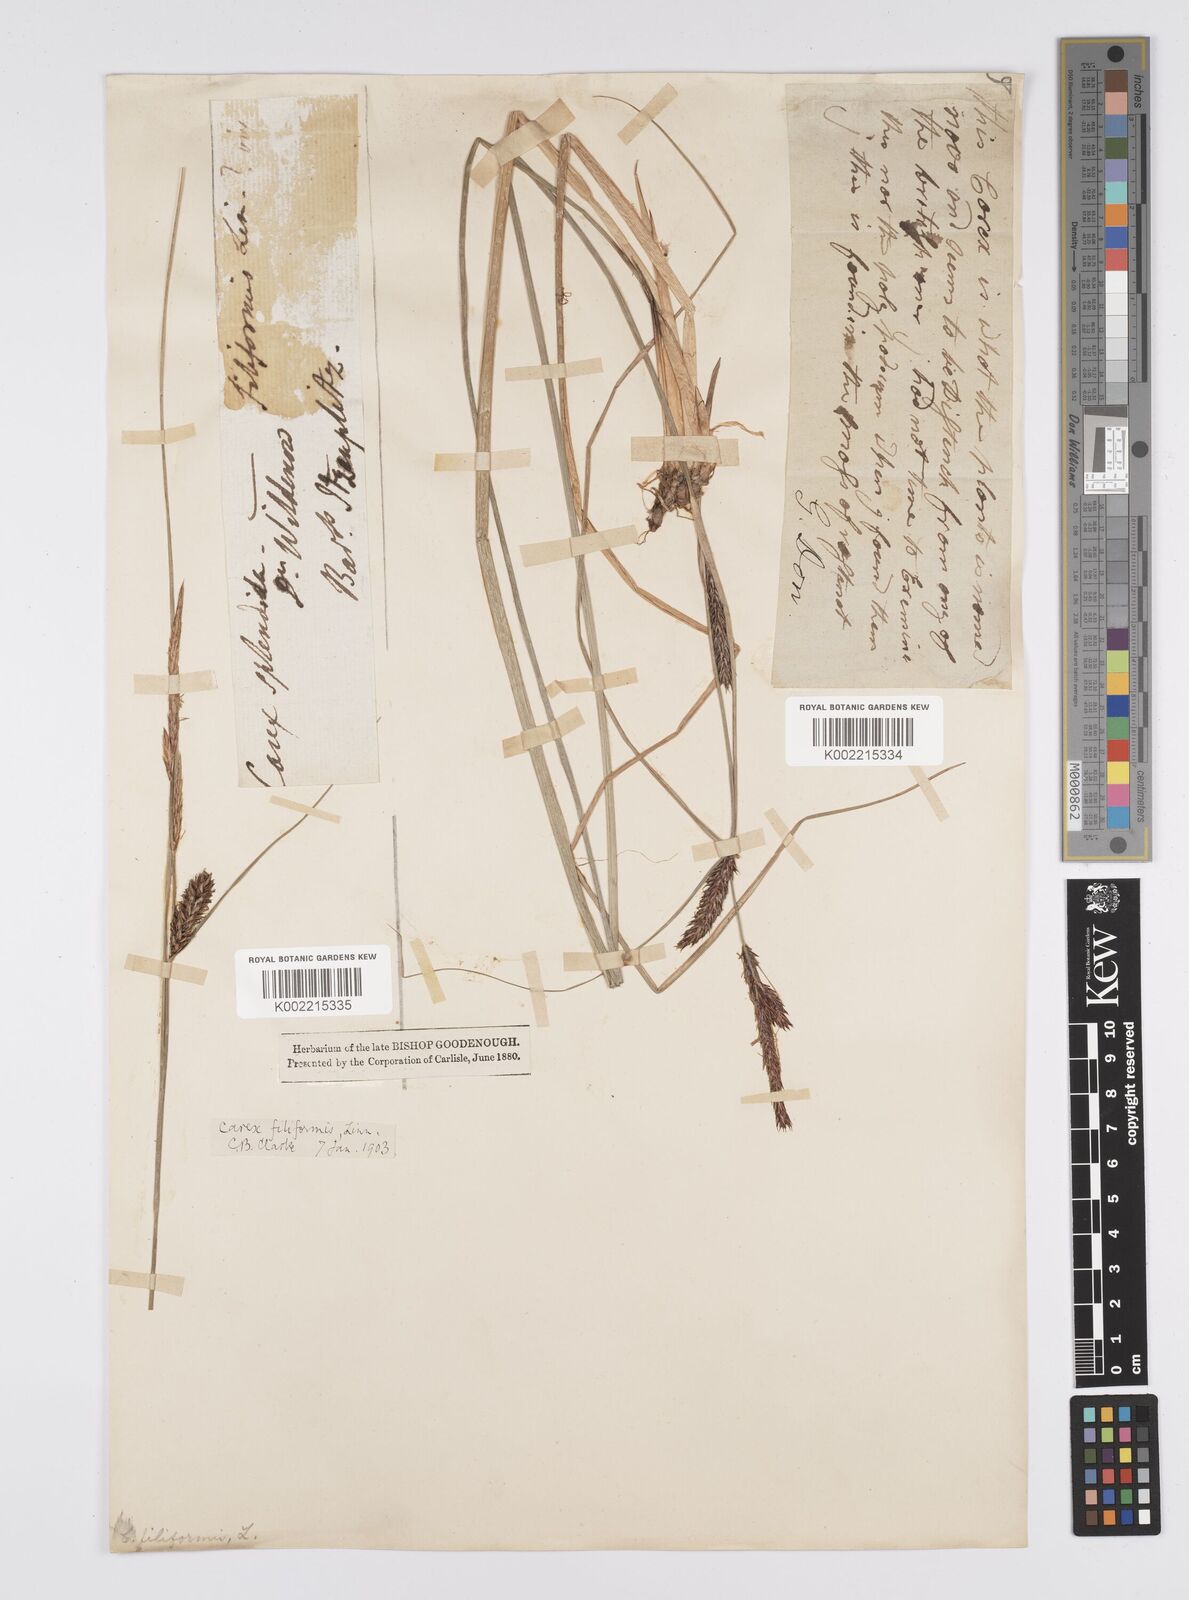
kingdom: Plantae
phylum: Tracheophyta
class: Liliopsida
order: Poales
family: Cyperaceae
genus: Carex
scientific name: Carex lasiocarpa
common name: Slender sedge
